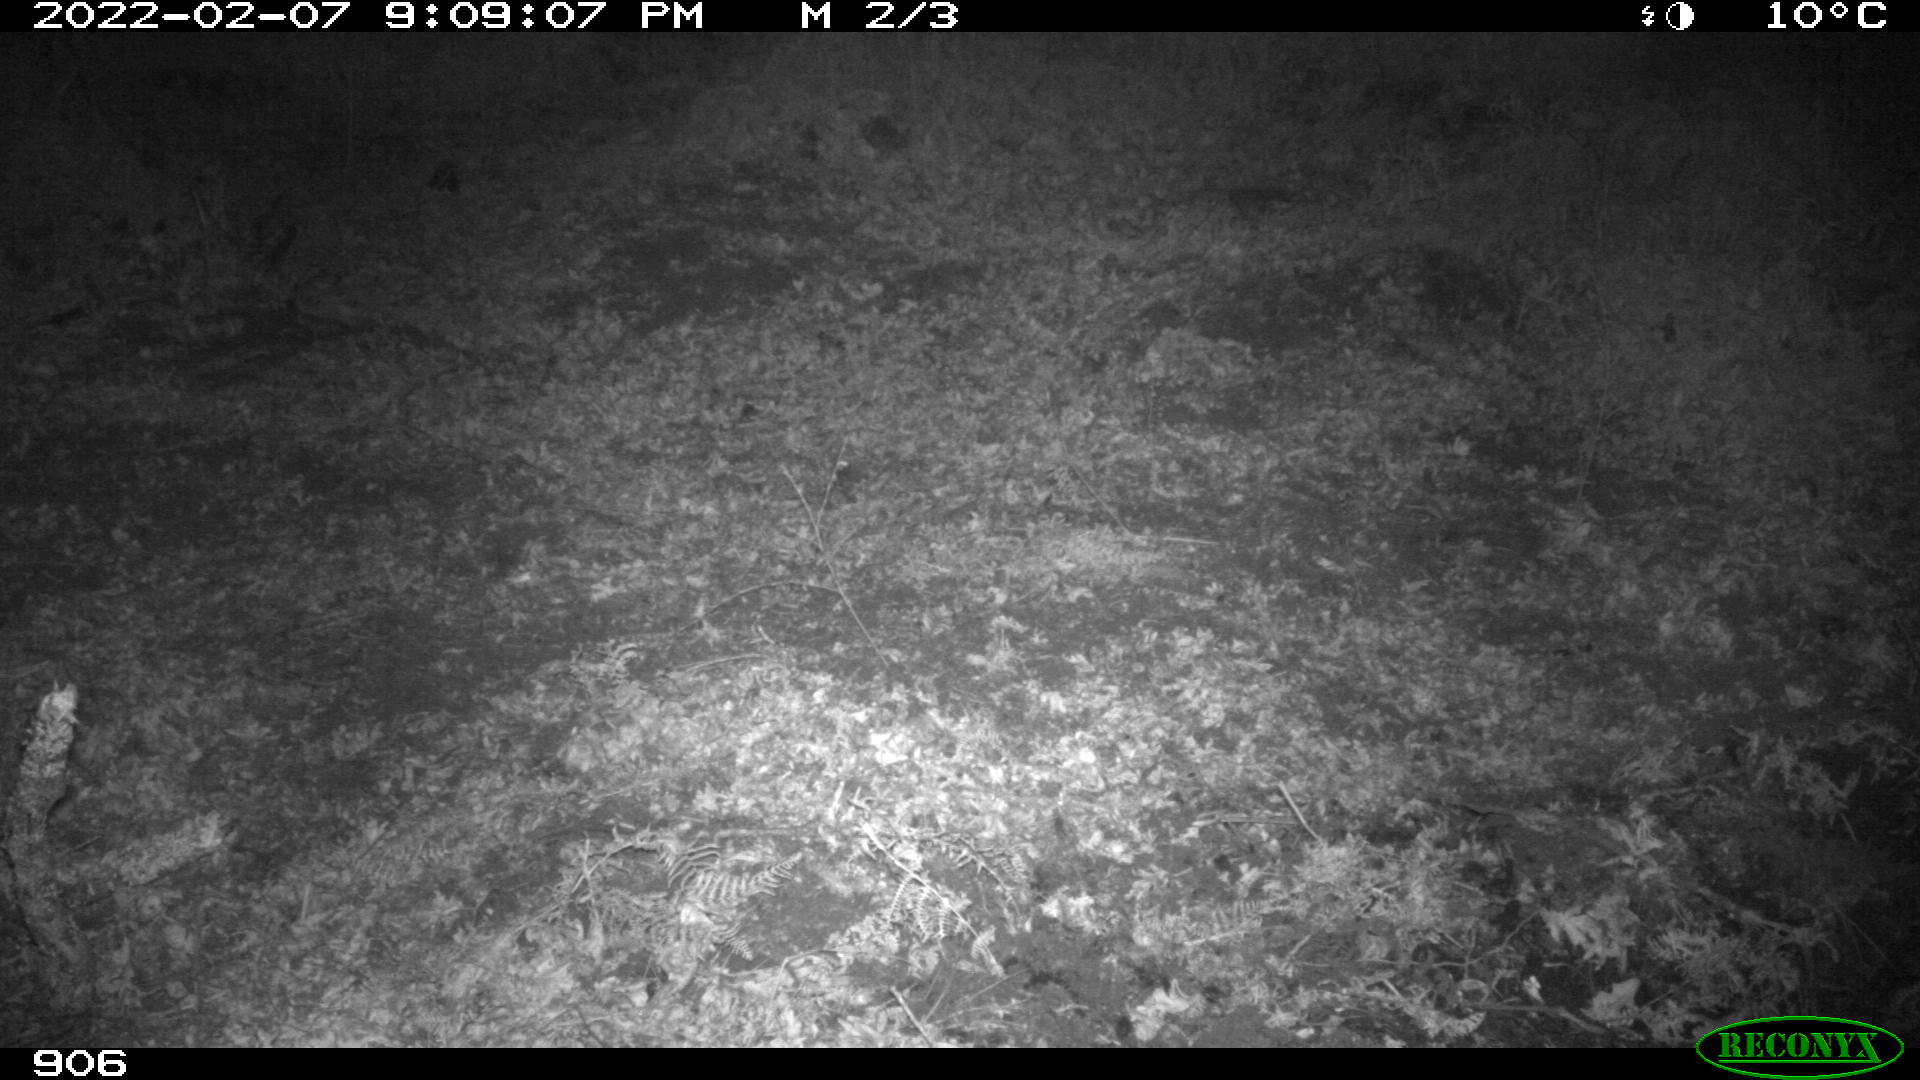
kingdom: Animalia
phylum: Chordata
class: Mammalia
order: Artiodactyla
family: Suidae
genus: Sus
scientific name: Sus scrofa
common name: Wild boar
